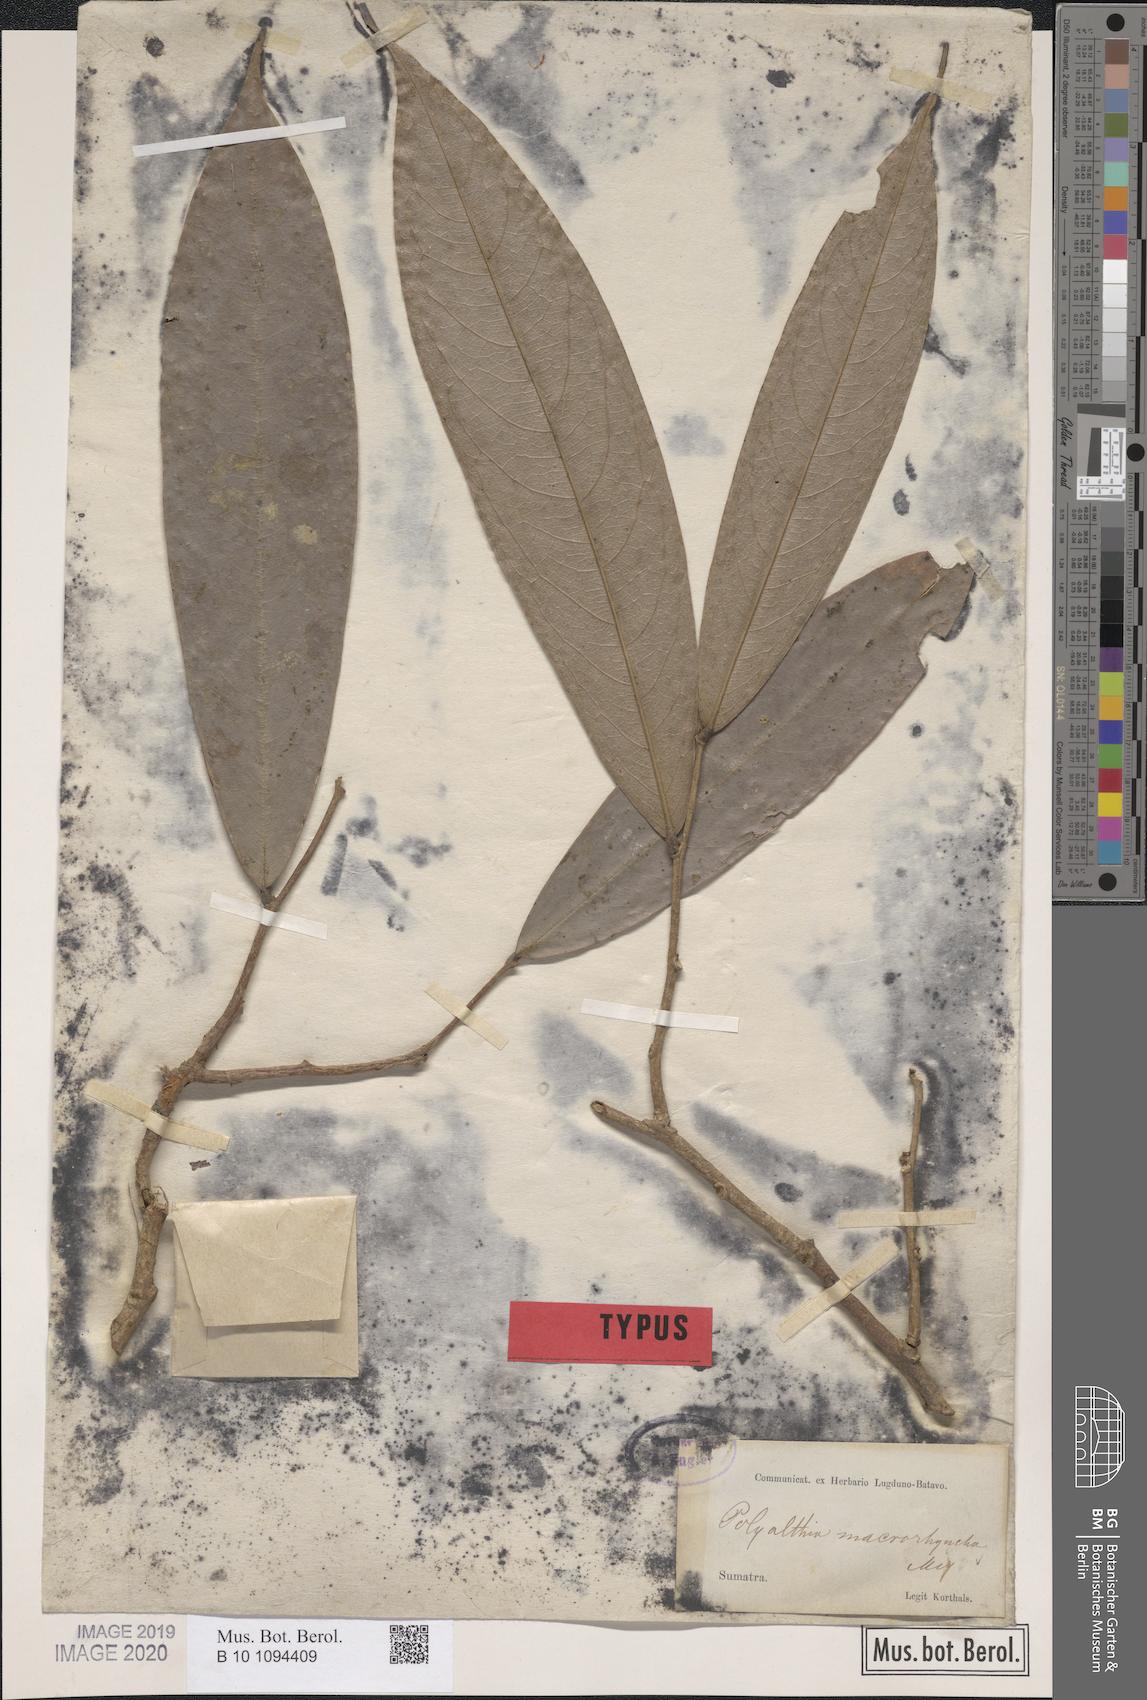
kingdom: Plantae
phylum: Tracheophyta
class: Magnoliopsida
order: Magnoliales
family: Annonaceae
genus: Polyalthia
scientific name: Polyalthia cauliflora
